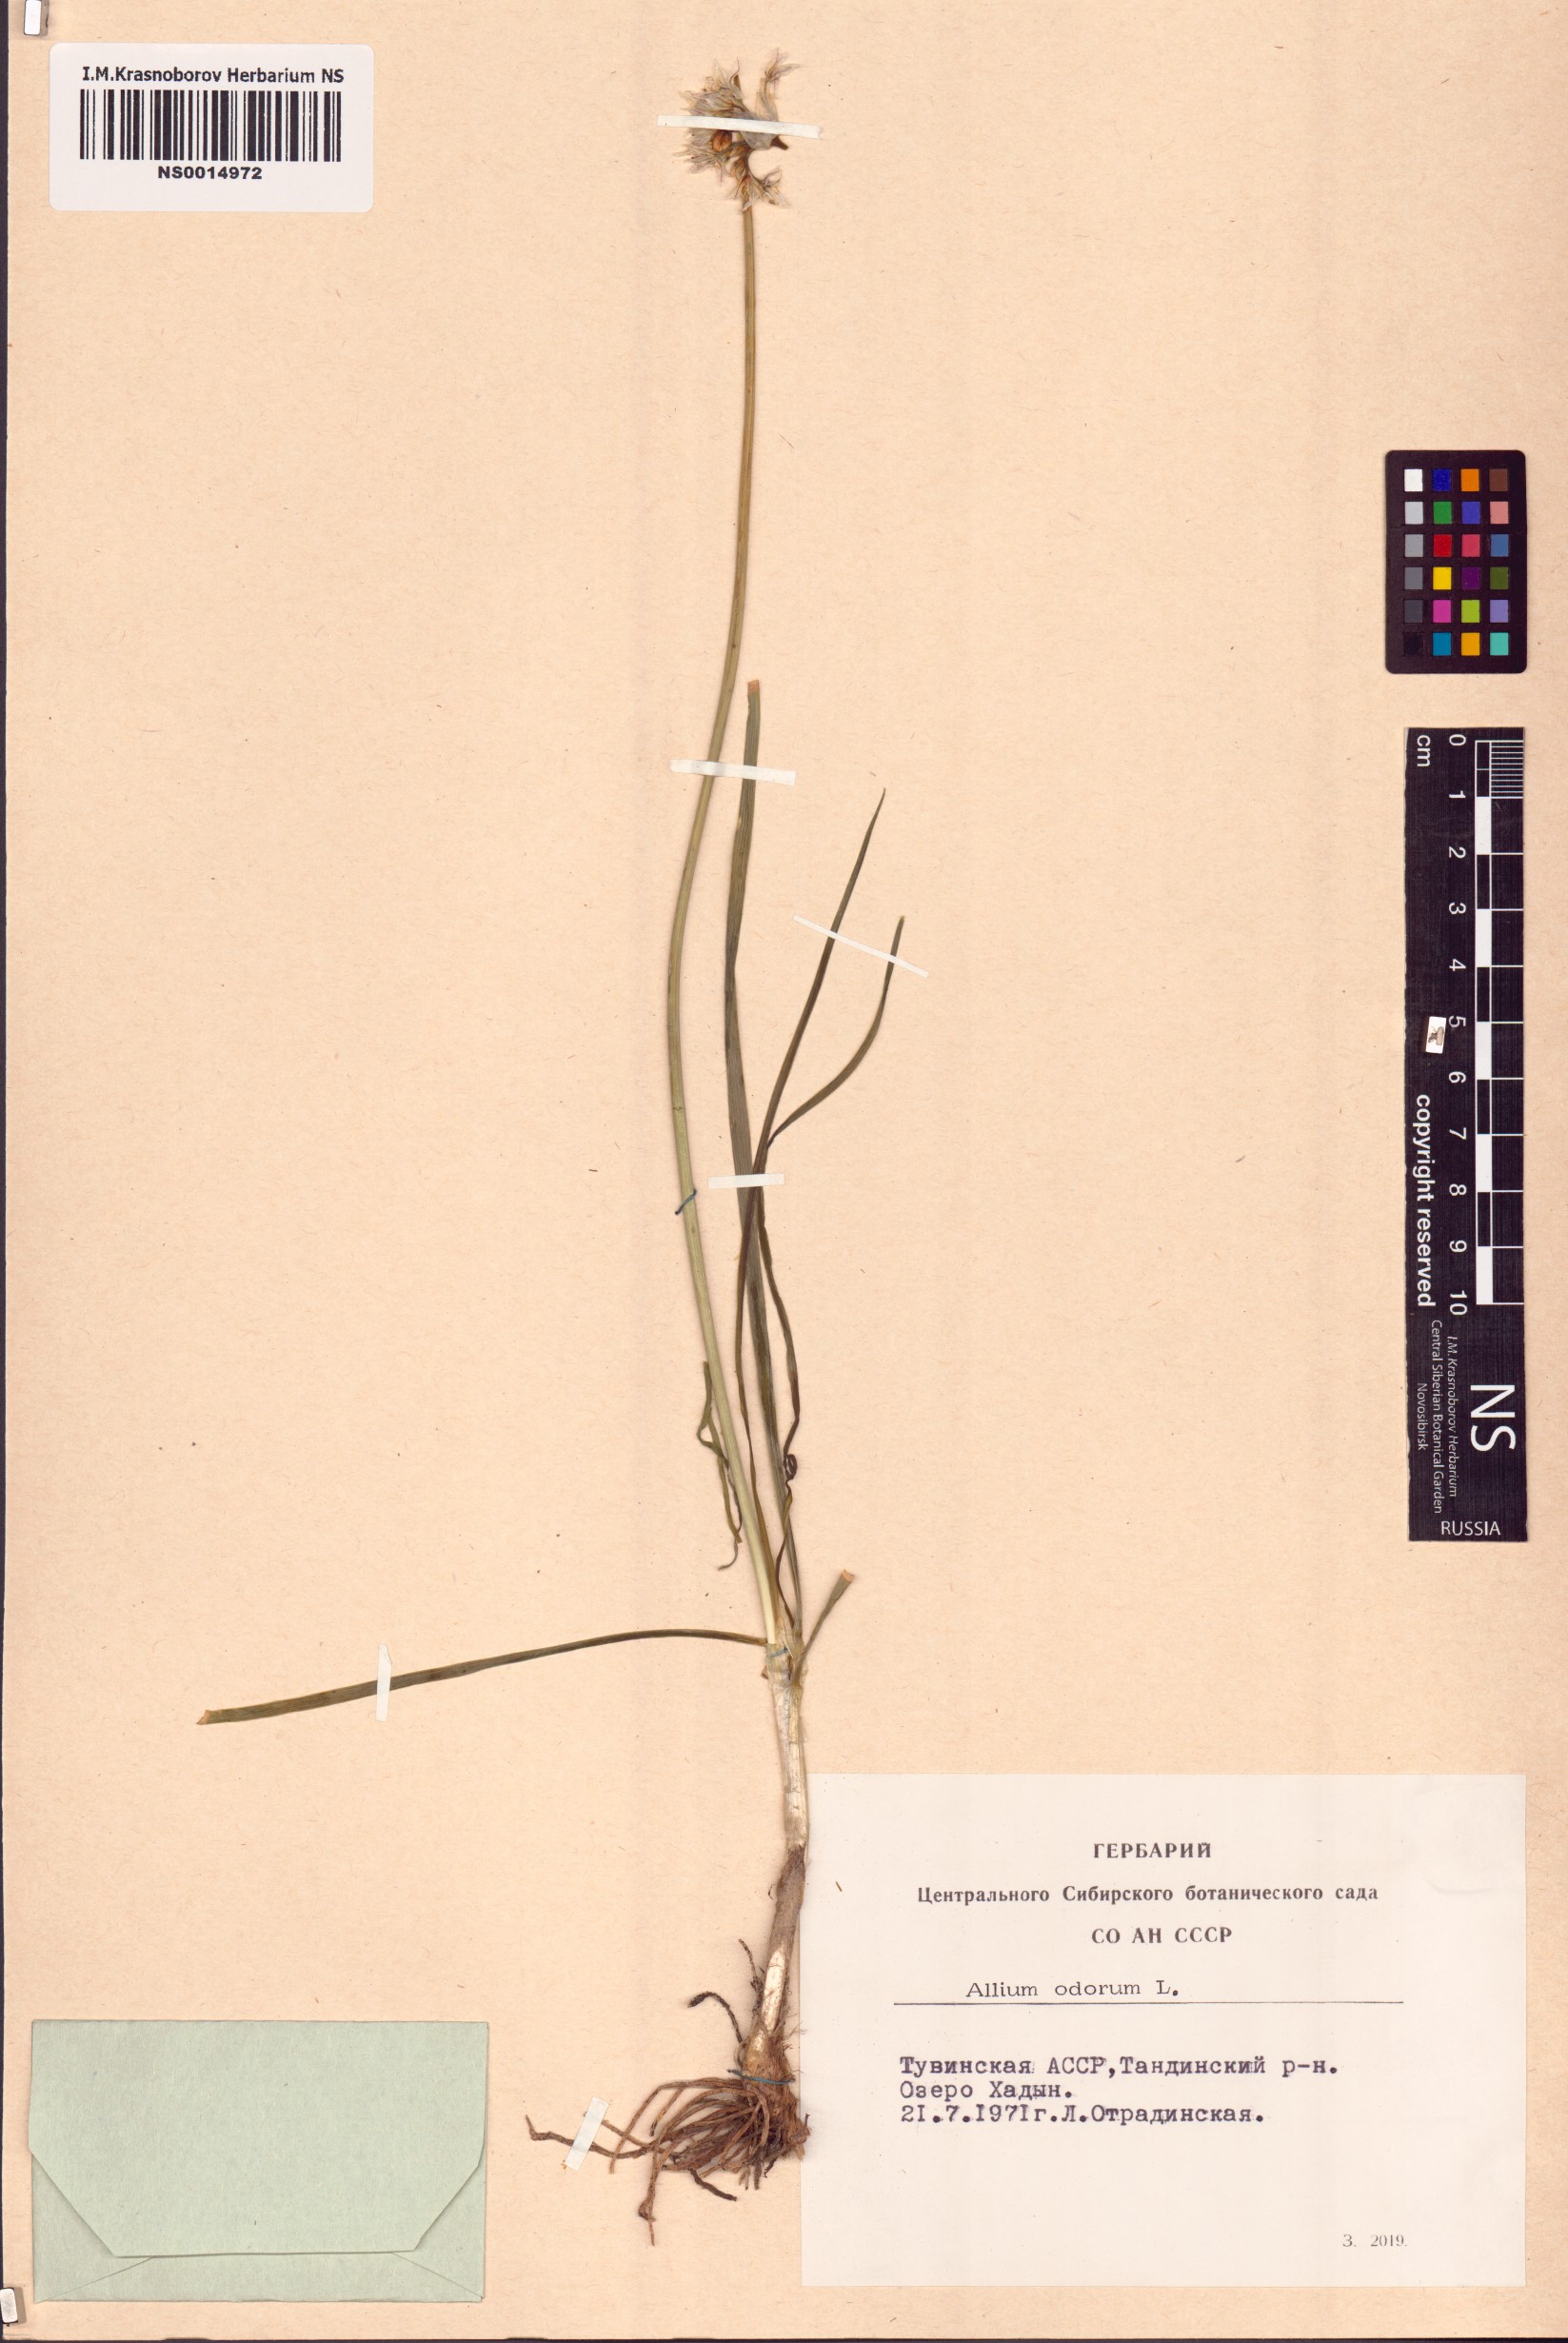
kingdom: Plantae
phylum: Tracheophyta
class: Liliopsida
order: Asparagales
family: Amaryllidaceae
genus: Allium
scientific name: Allium ramosum
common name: Fragrant garlic
